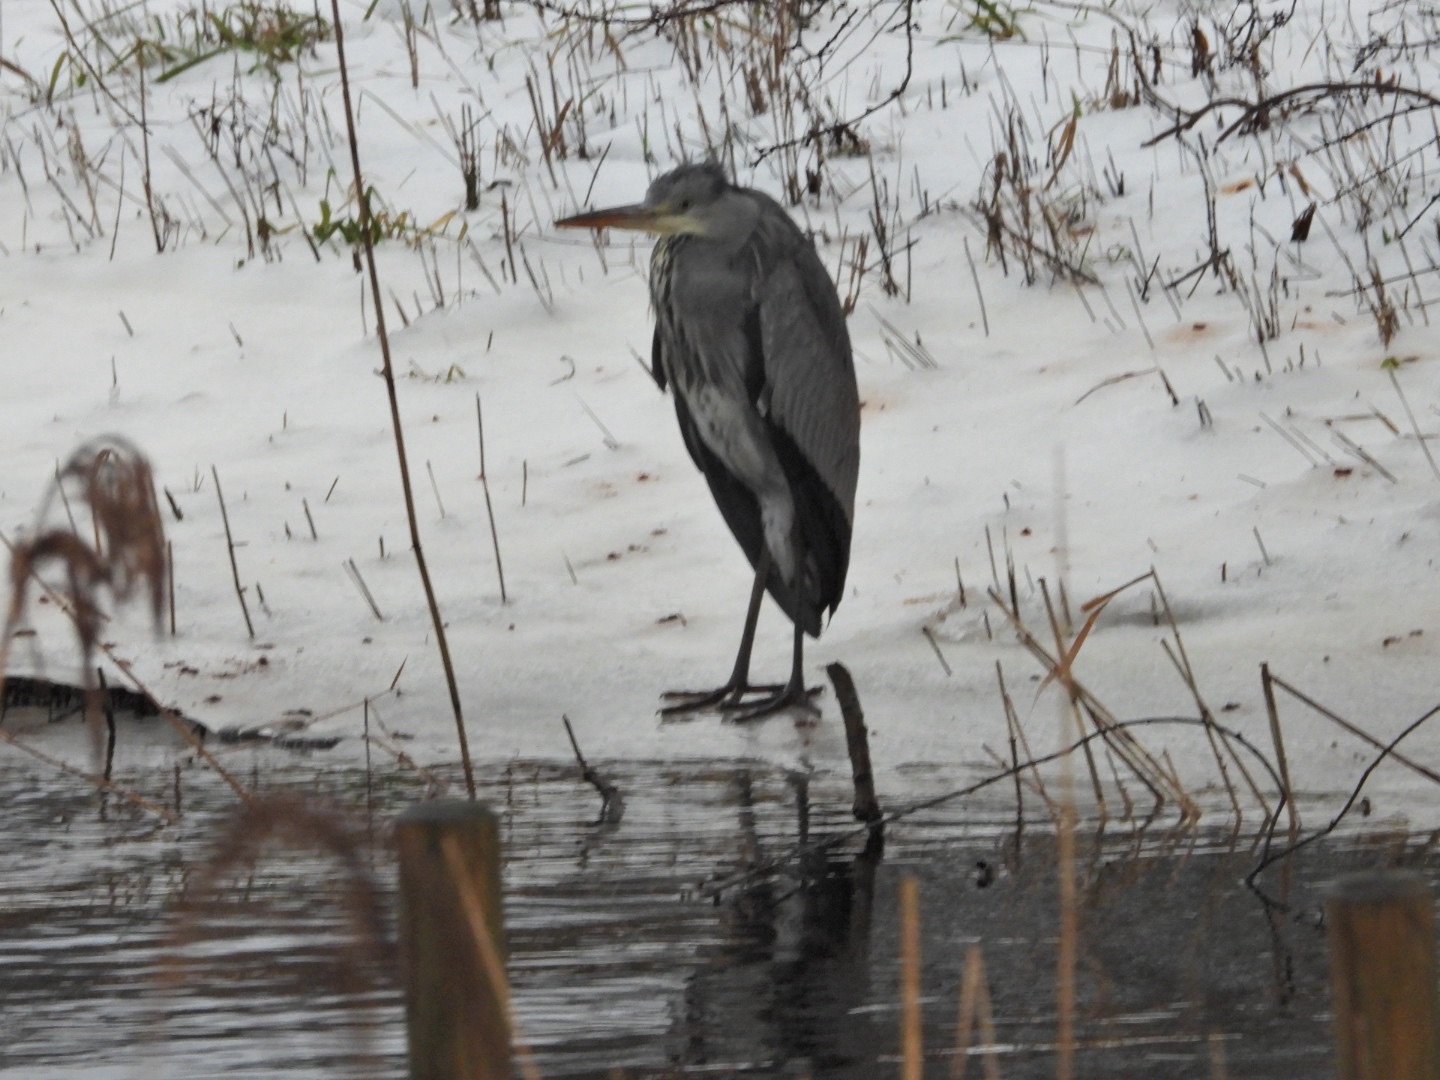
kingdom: Animalia
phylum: Chordata
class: Aves
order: Pelecaniformes
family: Ardeidae
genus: Ardea
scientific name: Ardea cinerea
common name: Fiskehejre
